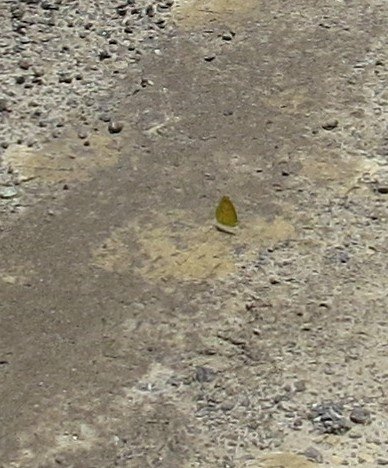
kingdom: Animalia
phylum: Arthropoda
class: Insecta
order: Lepidoptera
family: Pieridae
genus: Abaeis
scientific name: Abaeis nicippe
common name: Sleepy Orange
